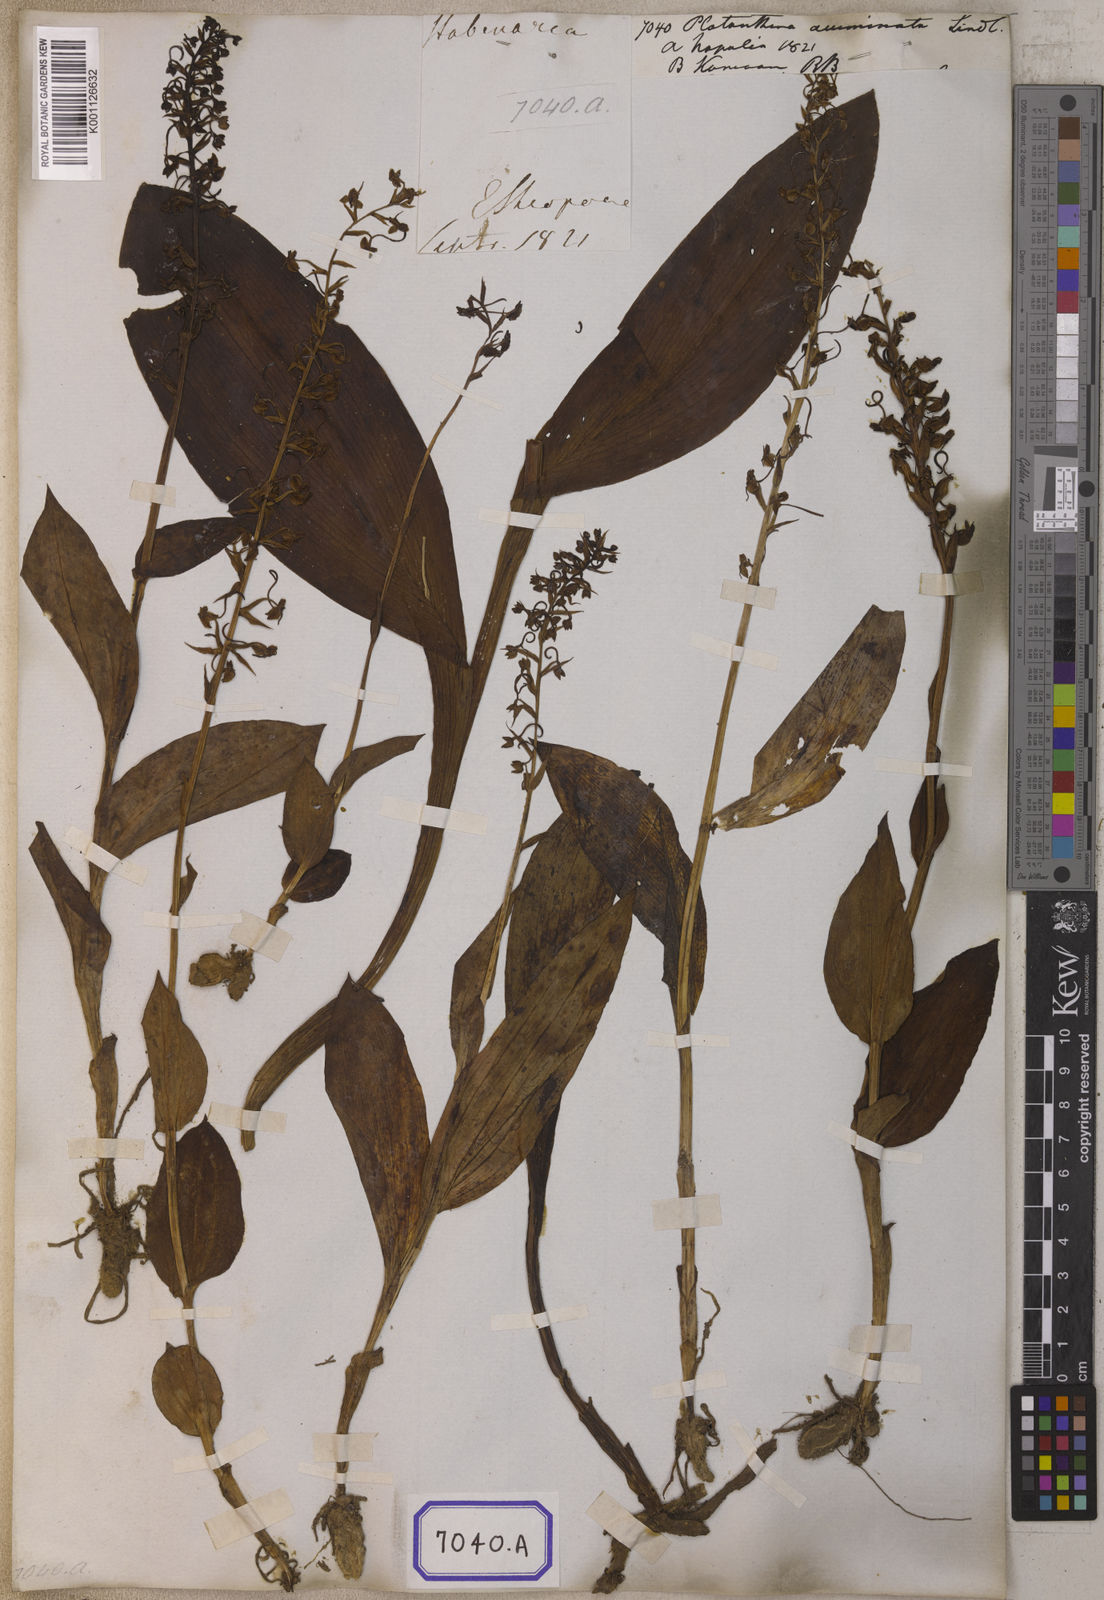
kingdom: Plantae
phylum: Tracheophyta
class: Liliopsida
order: Asparagales
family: Orchidaceae
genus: Herminium
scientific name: Herminium latilabre
